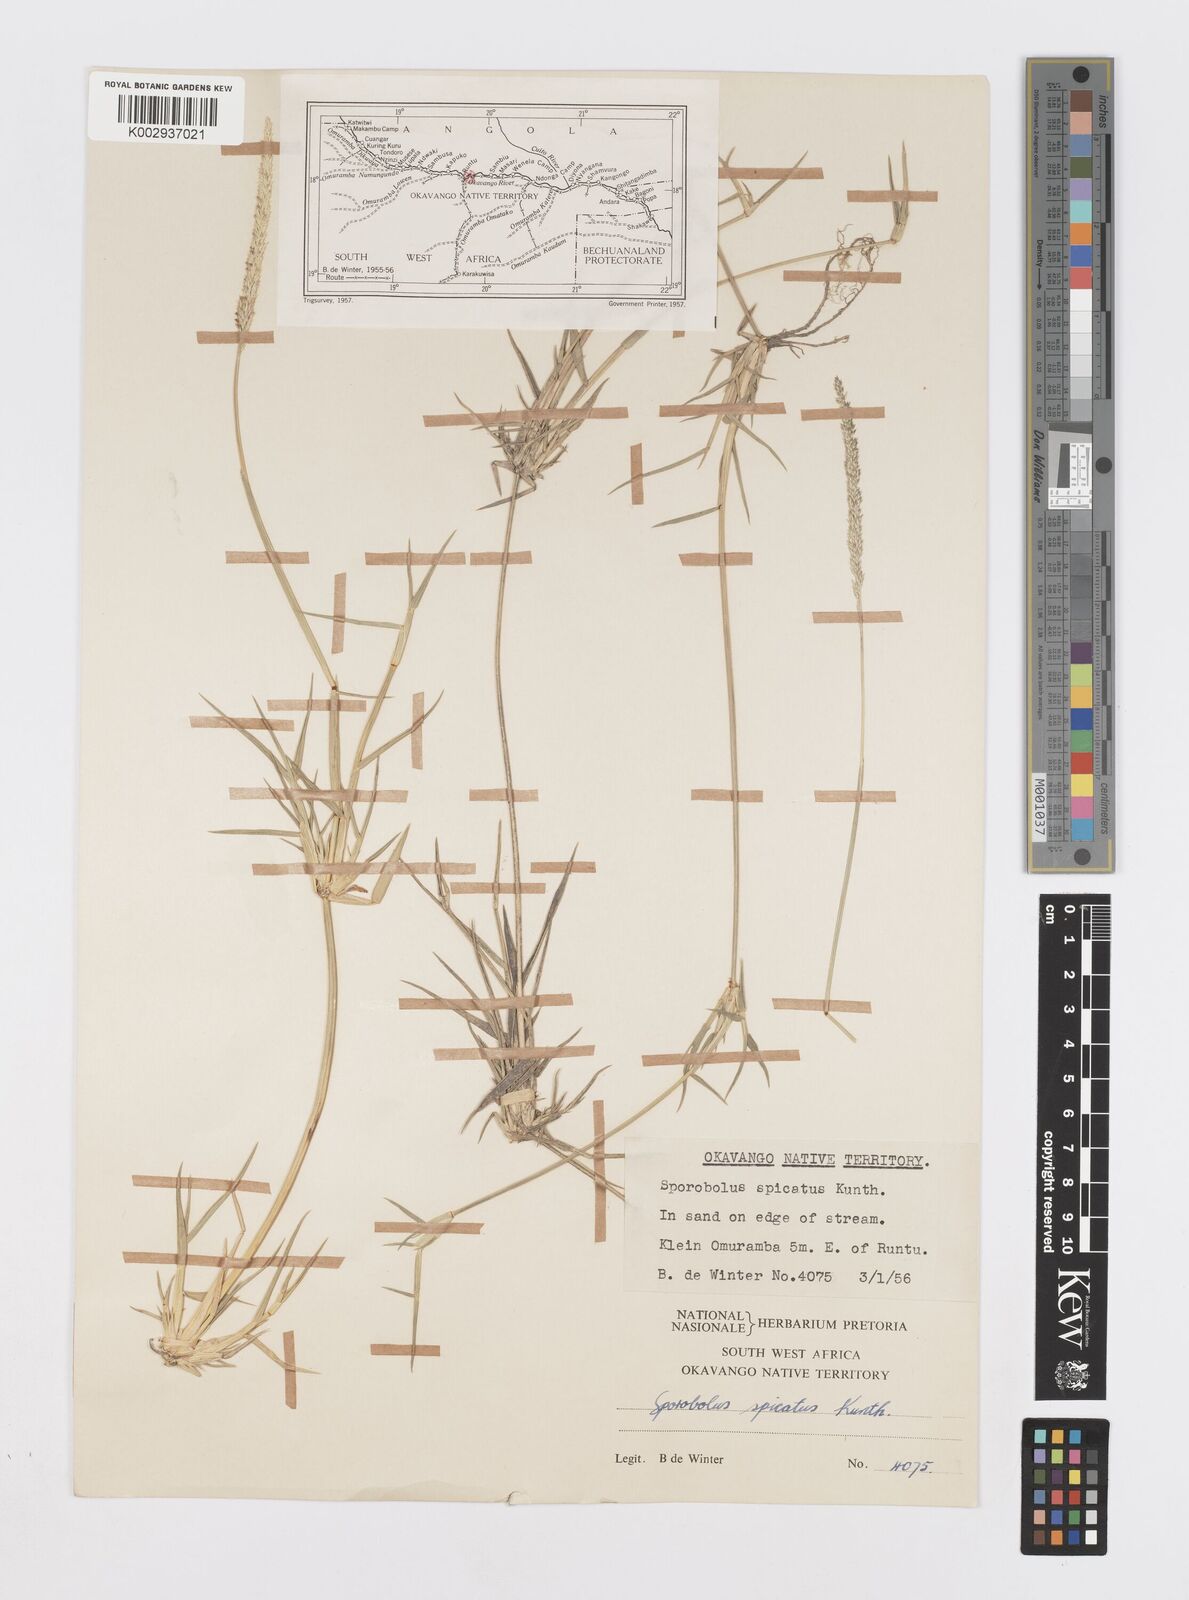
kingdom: Plantae
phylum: Tracheophyta
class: Liliopsida
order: Poales
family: Poaceae
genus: Sporobolus
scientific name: Sporobolus spicatus
